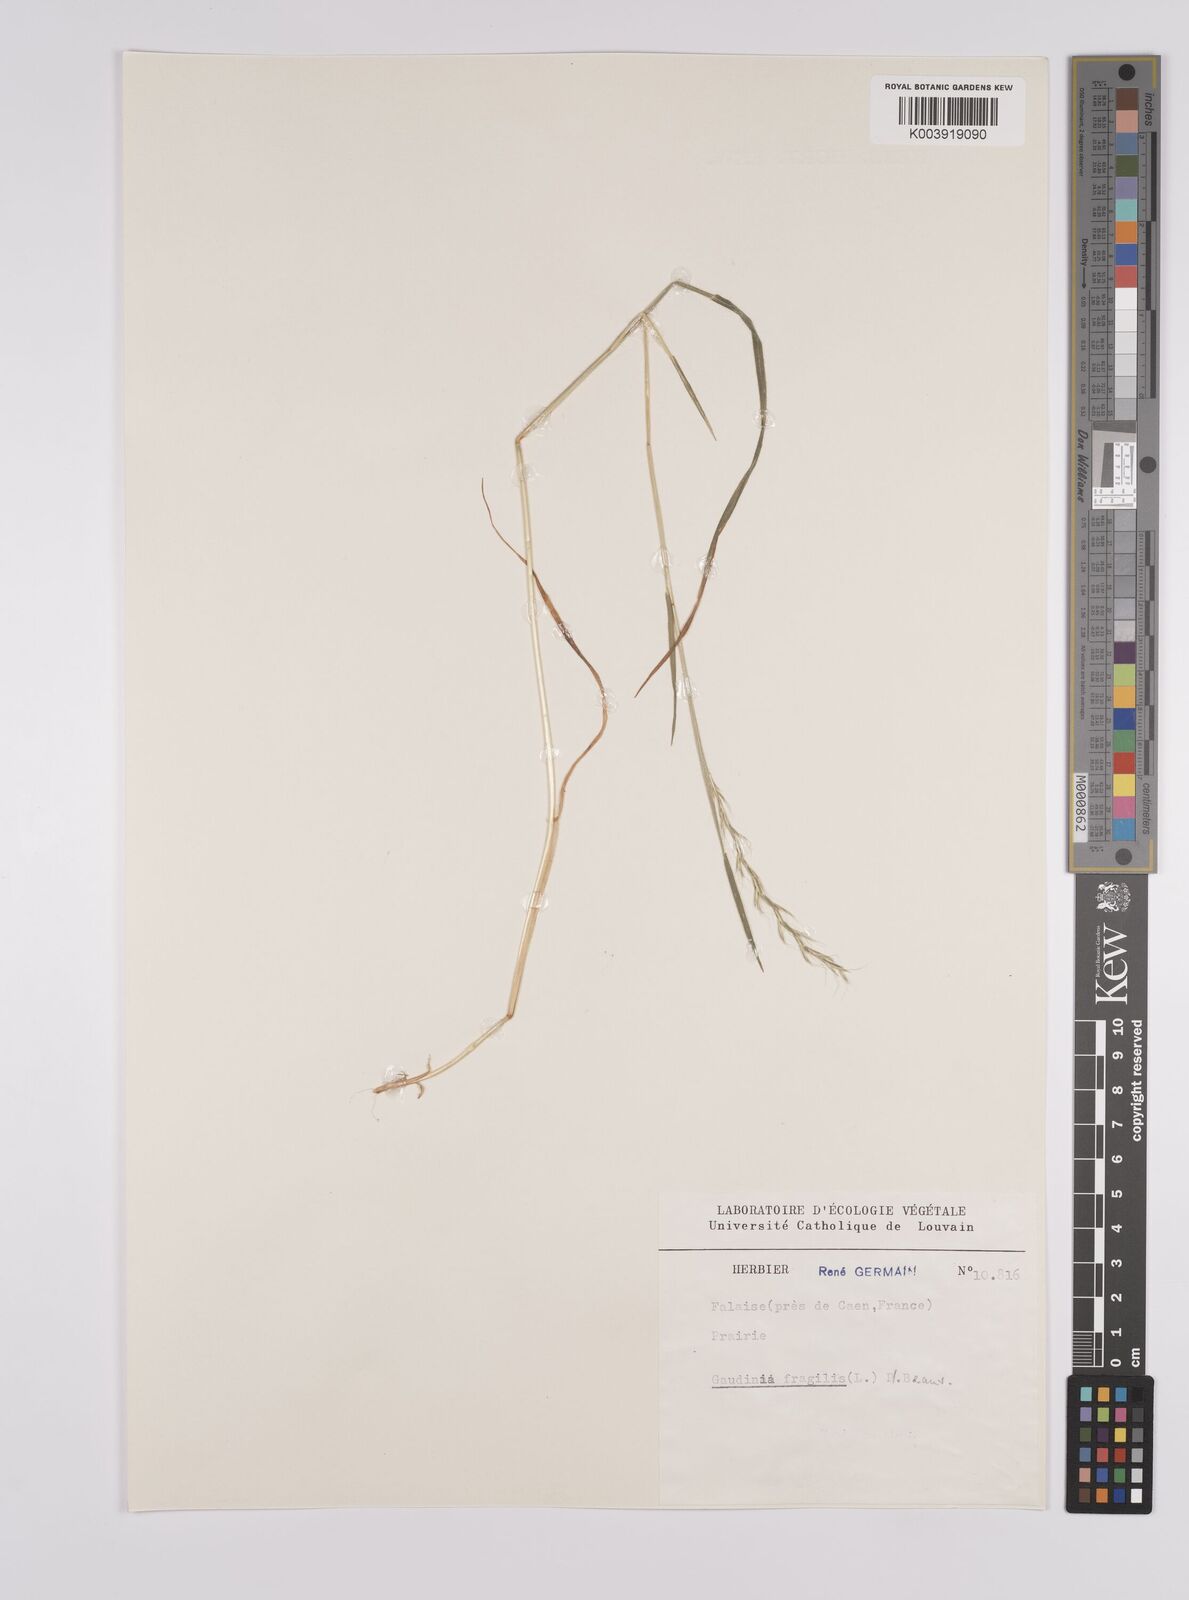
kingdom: Plantae
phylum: Tracheophyta
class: Liliopsida
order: Poales
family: Poaceae
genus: Gaudinia
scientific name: Gaudinia fragilis
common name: French oat-grass
